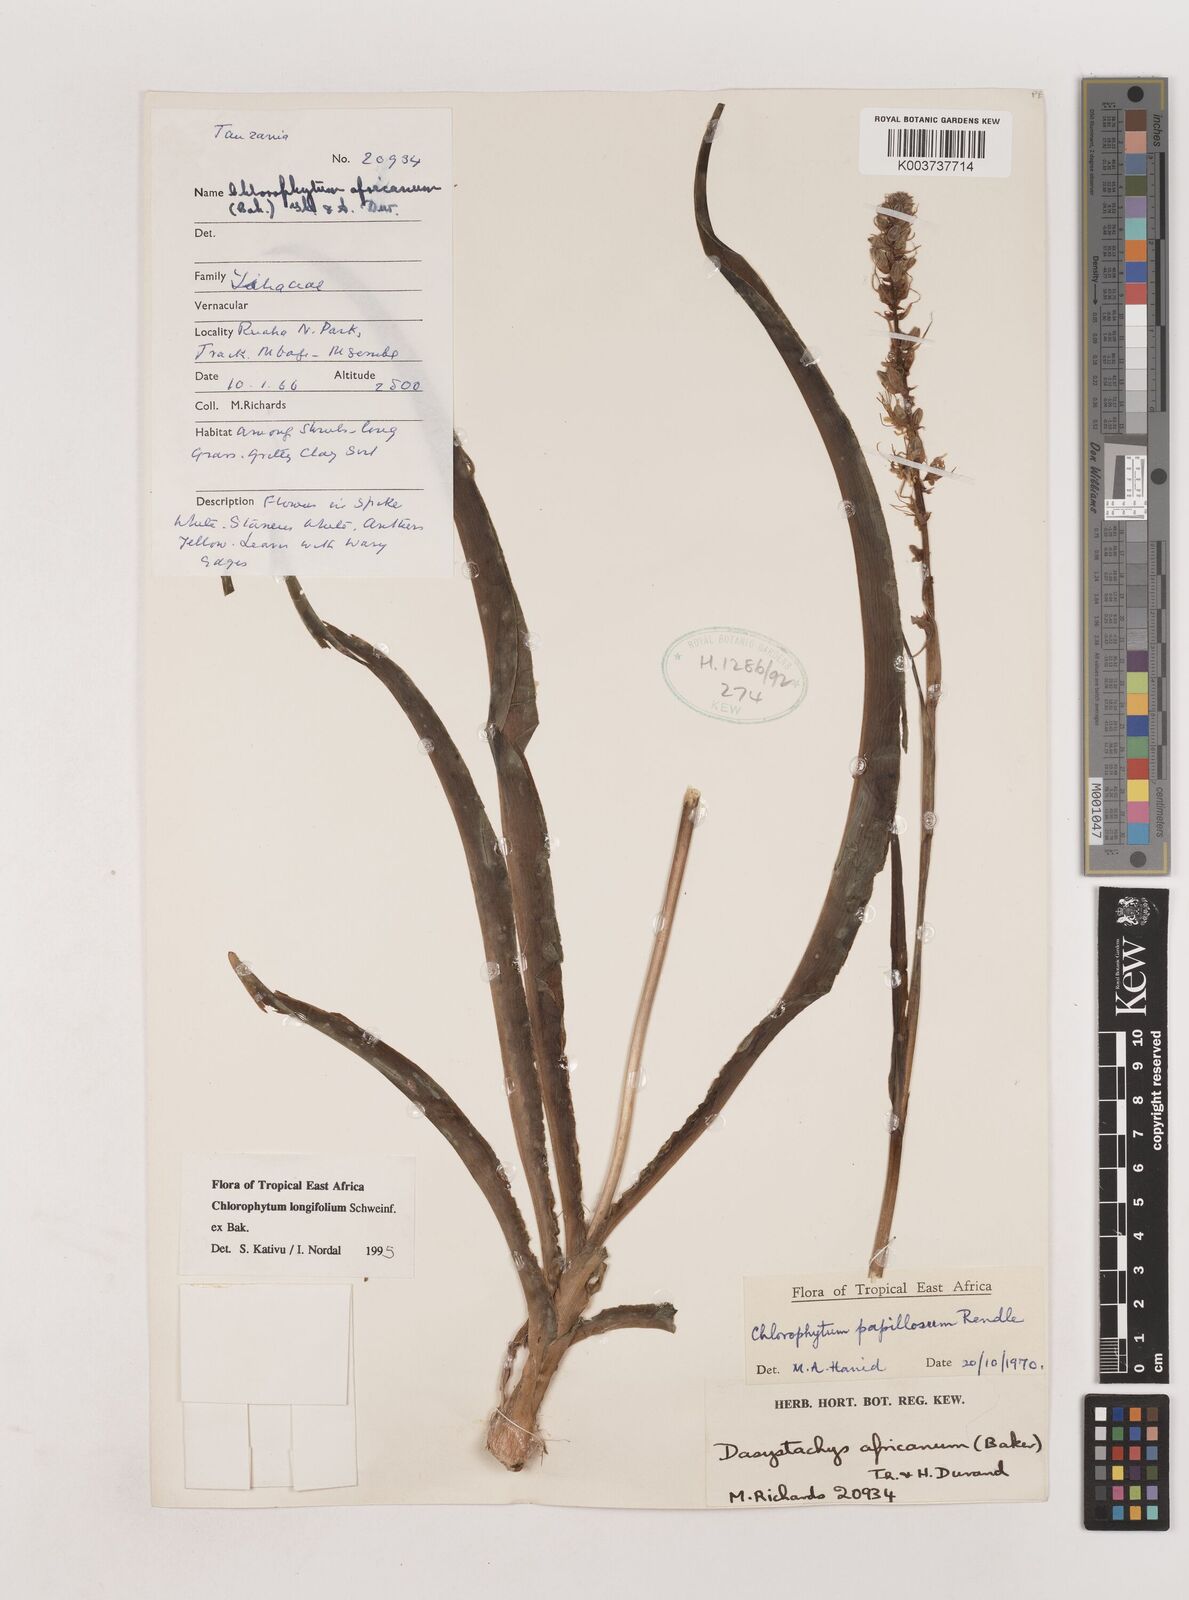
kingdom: Plantae
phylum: Tracheophyta
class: Liliopsida
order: Asparagales
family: Asparagaceae
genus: Chlorophytum
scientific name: Chlorophytum longifolium
